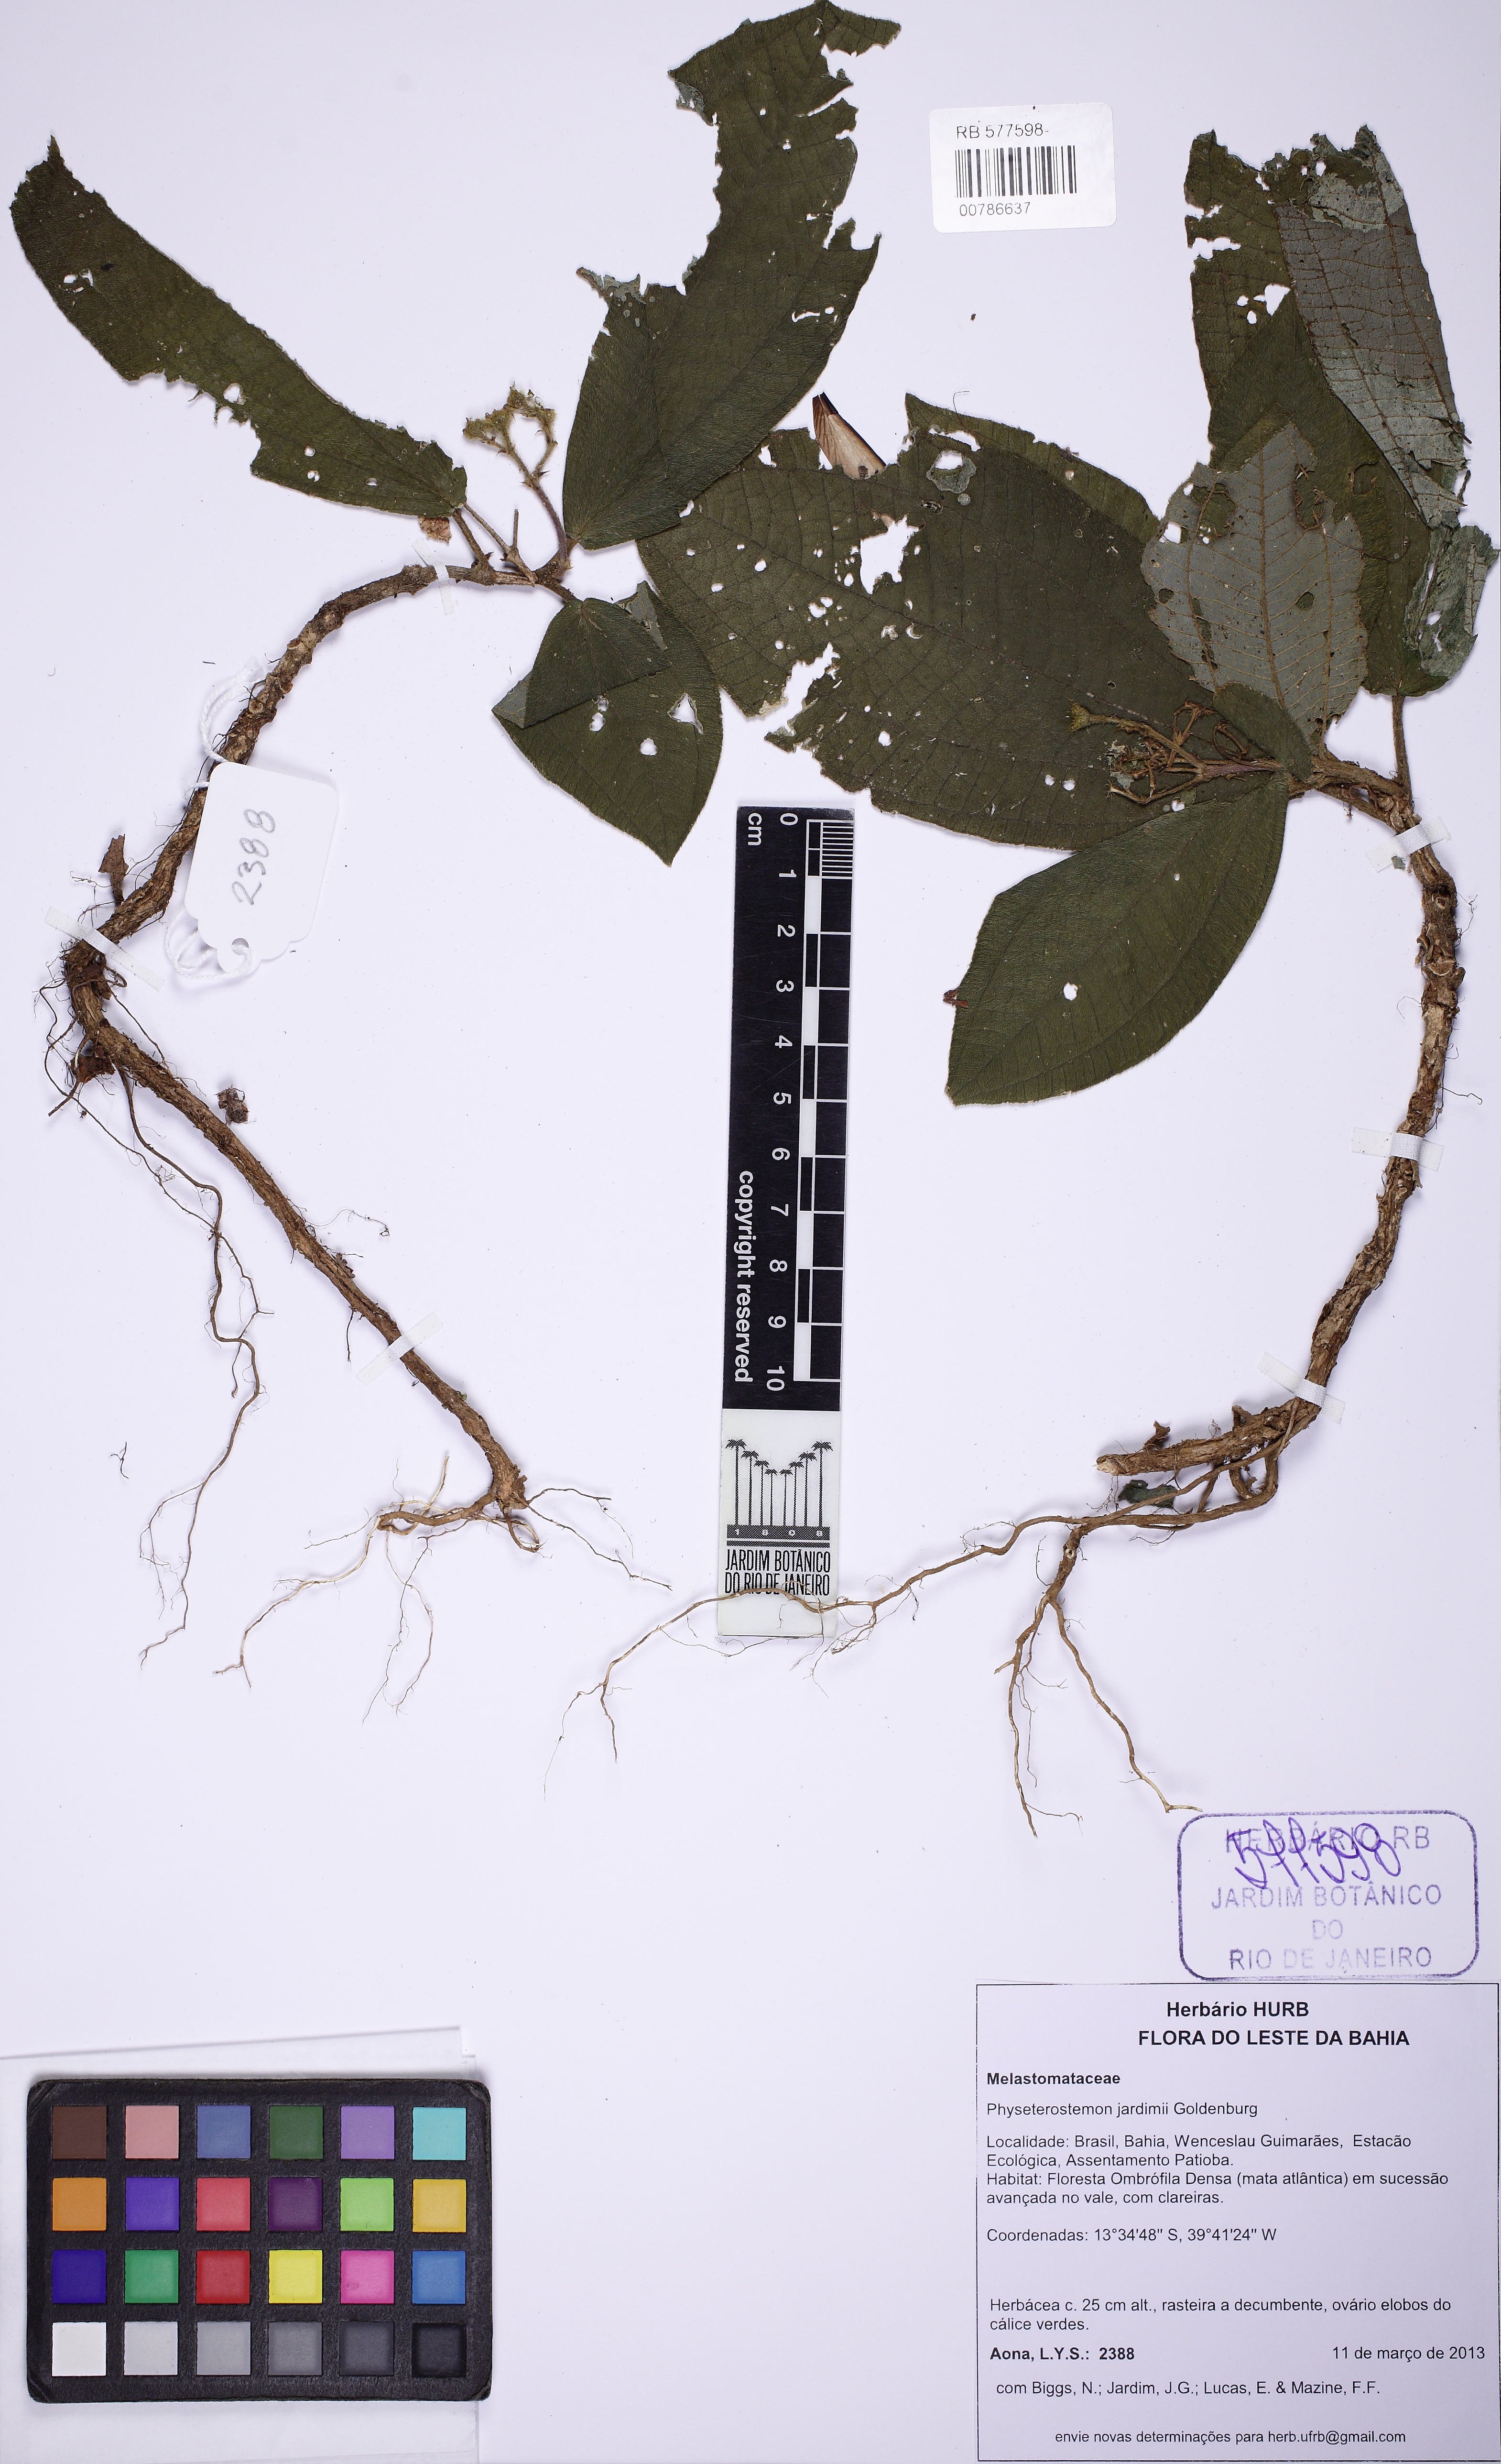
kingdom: Plantae
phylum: Tracheophyta
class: Magnoliopsida
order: Myrtales
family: Melastomataceae
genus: Physeterostemon
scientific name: Physeterostemon aonae
